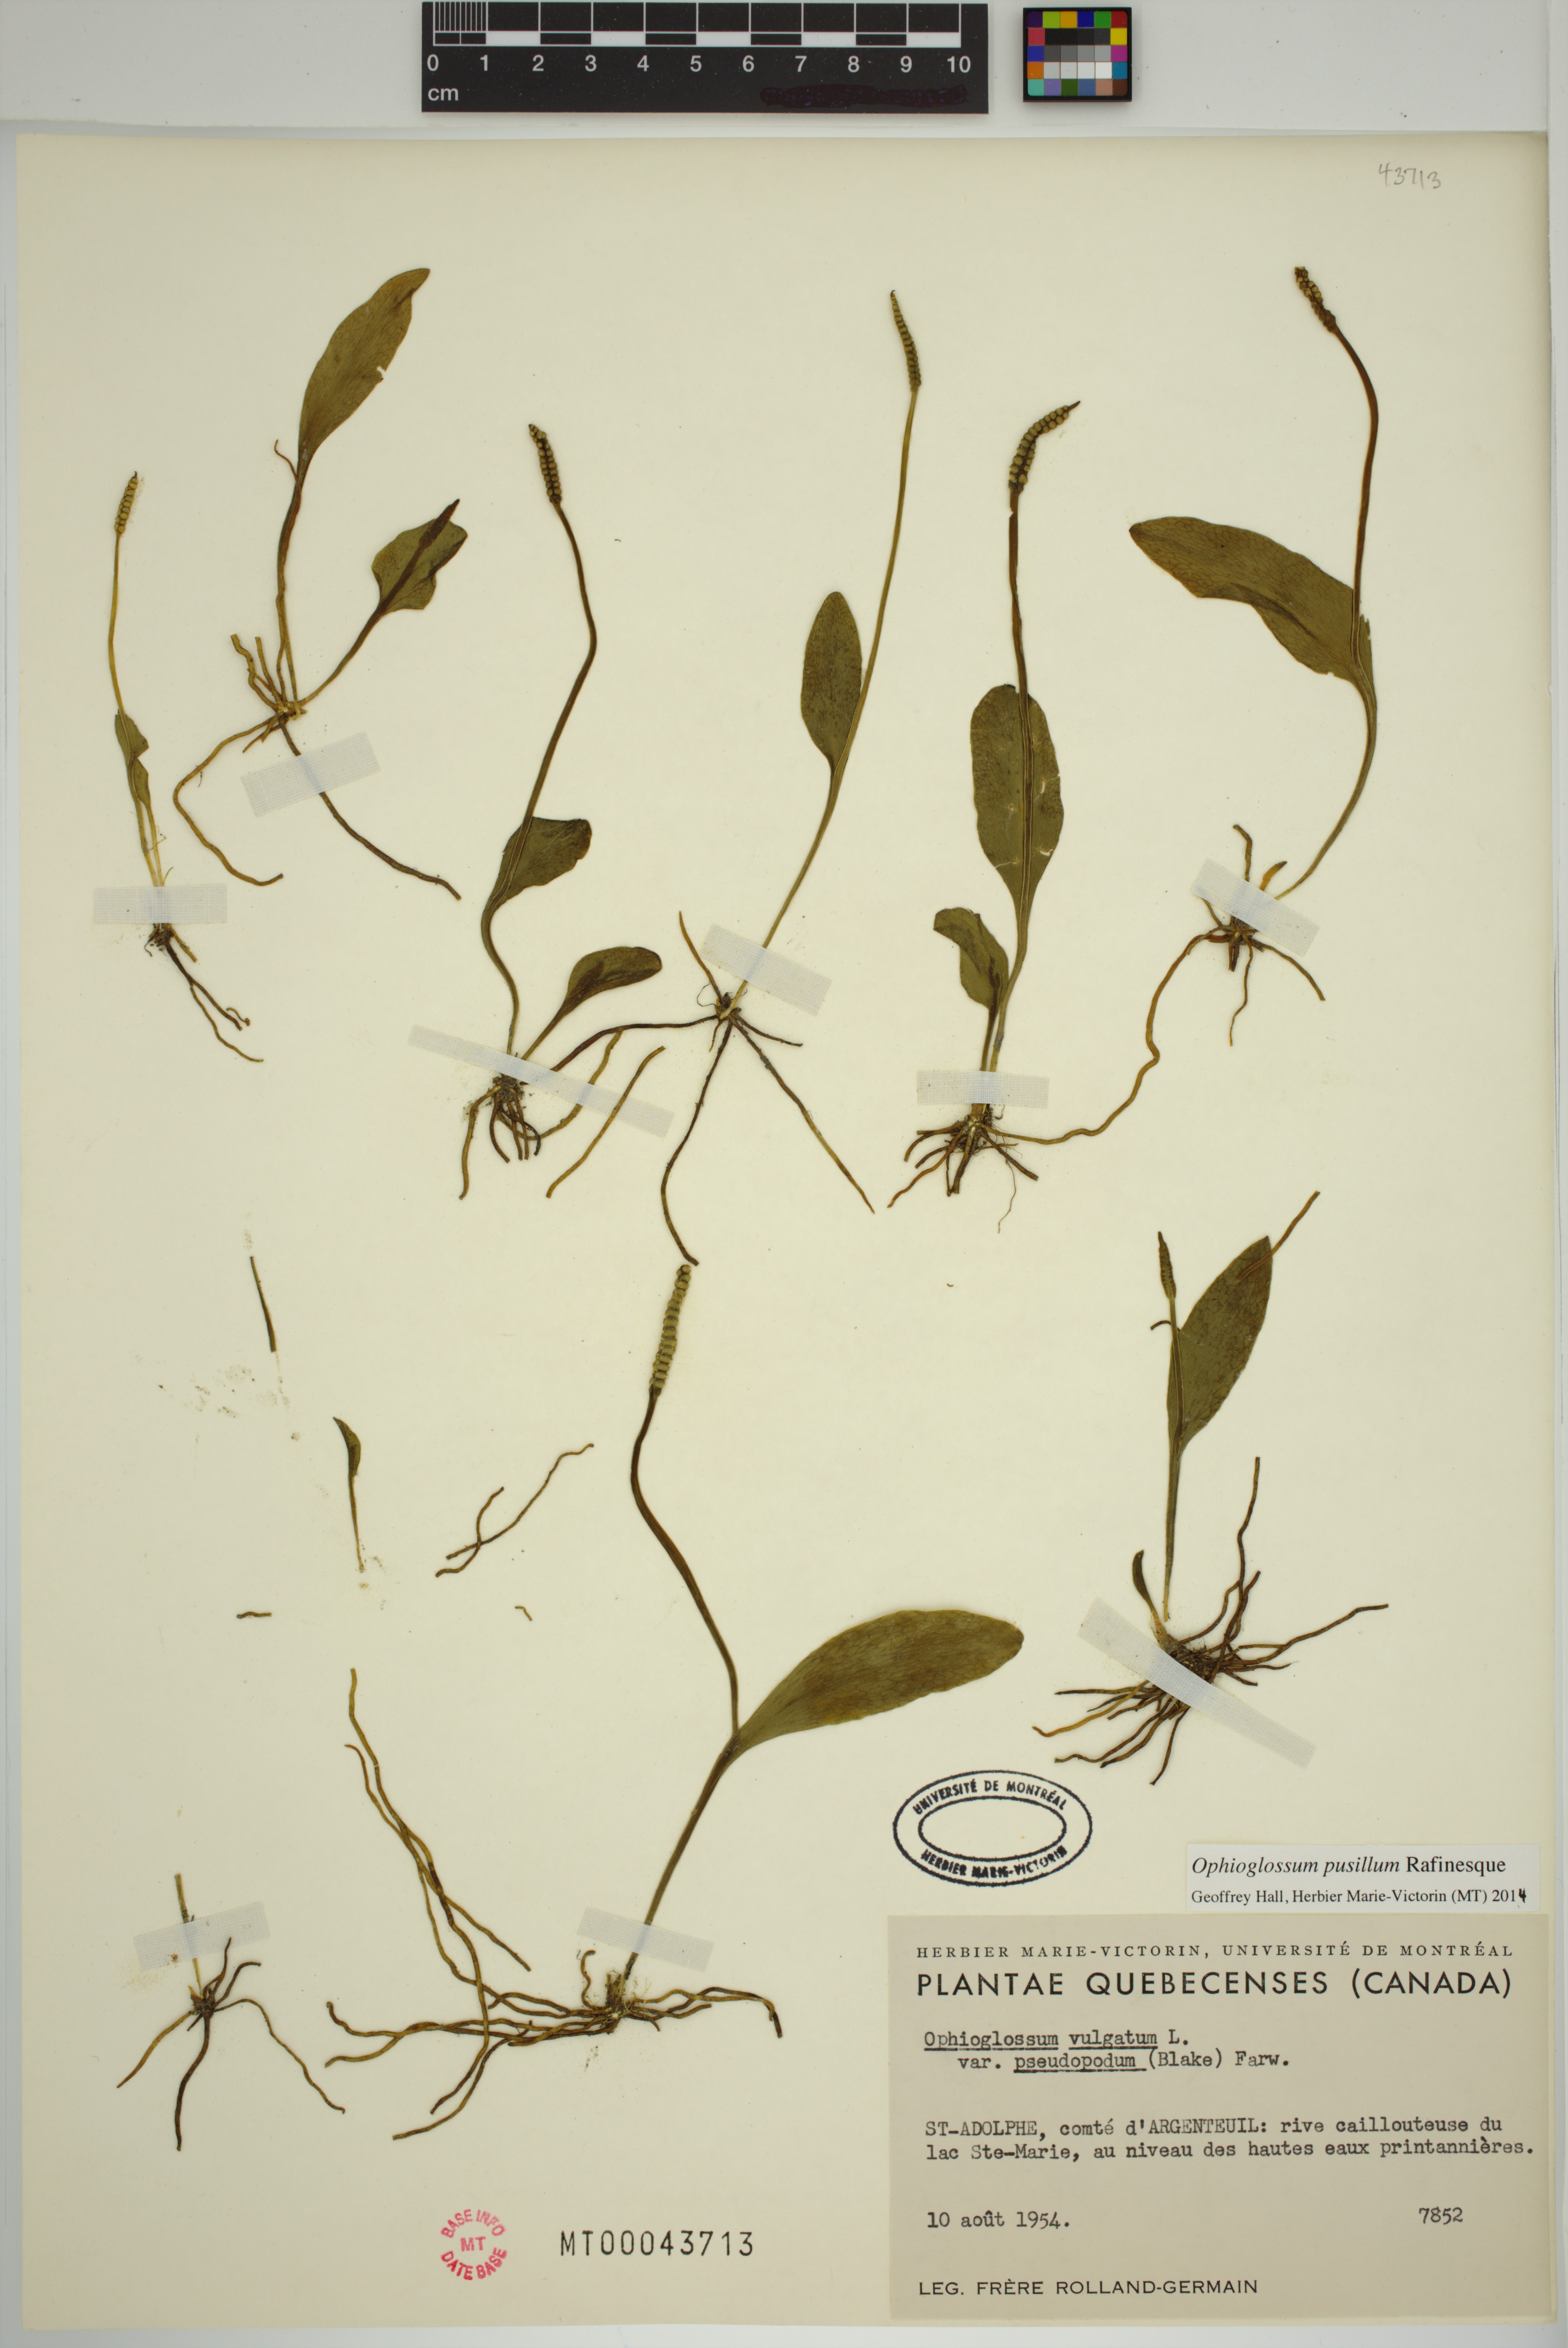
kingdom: Plantae
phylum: Tracheophyta
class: Polypodiopsida
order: Ophioglossales
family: Ophioglossaceae
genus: Ophioglossum
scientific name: Ophioglossum pusillum
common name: Northern adder's-tongue
